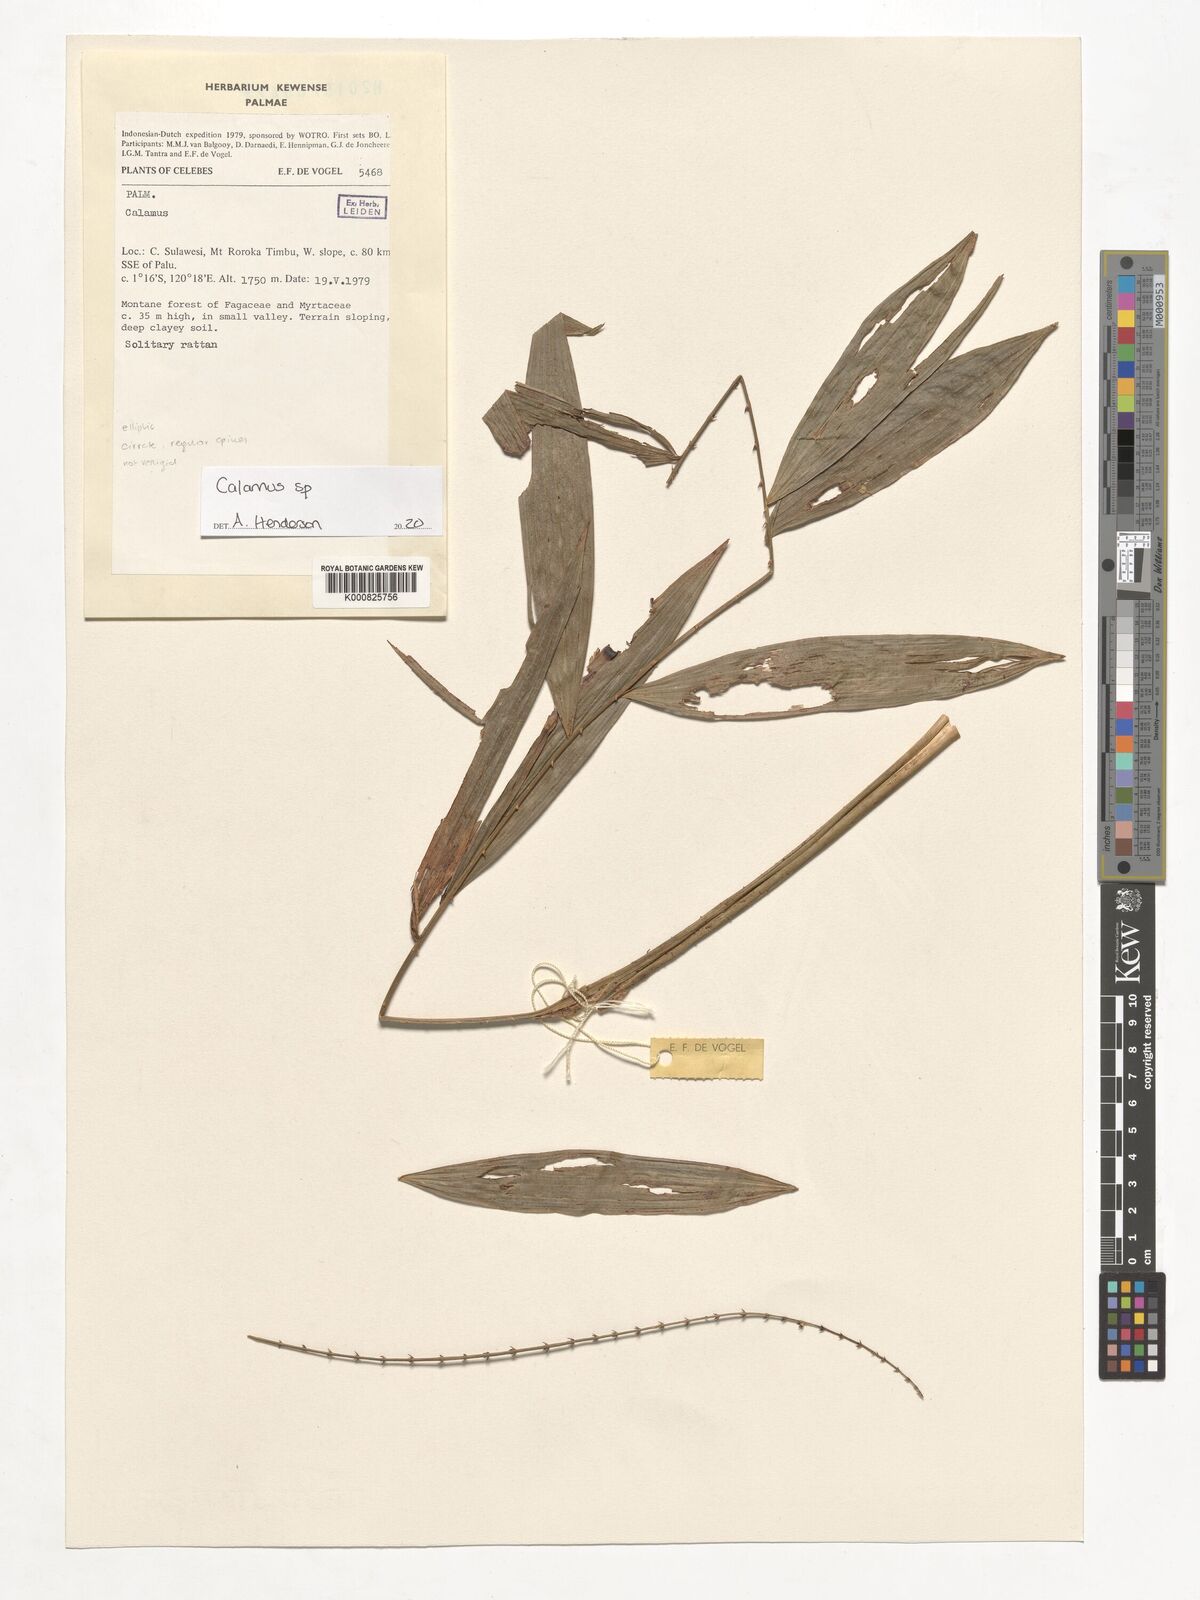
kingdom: Plantae
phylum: Tracheophyta
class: Liliopsida
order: Arecales
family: Arecaceae
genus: Calamus
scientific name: Calamus
